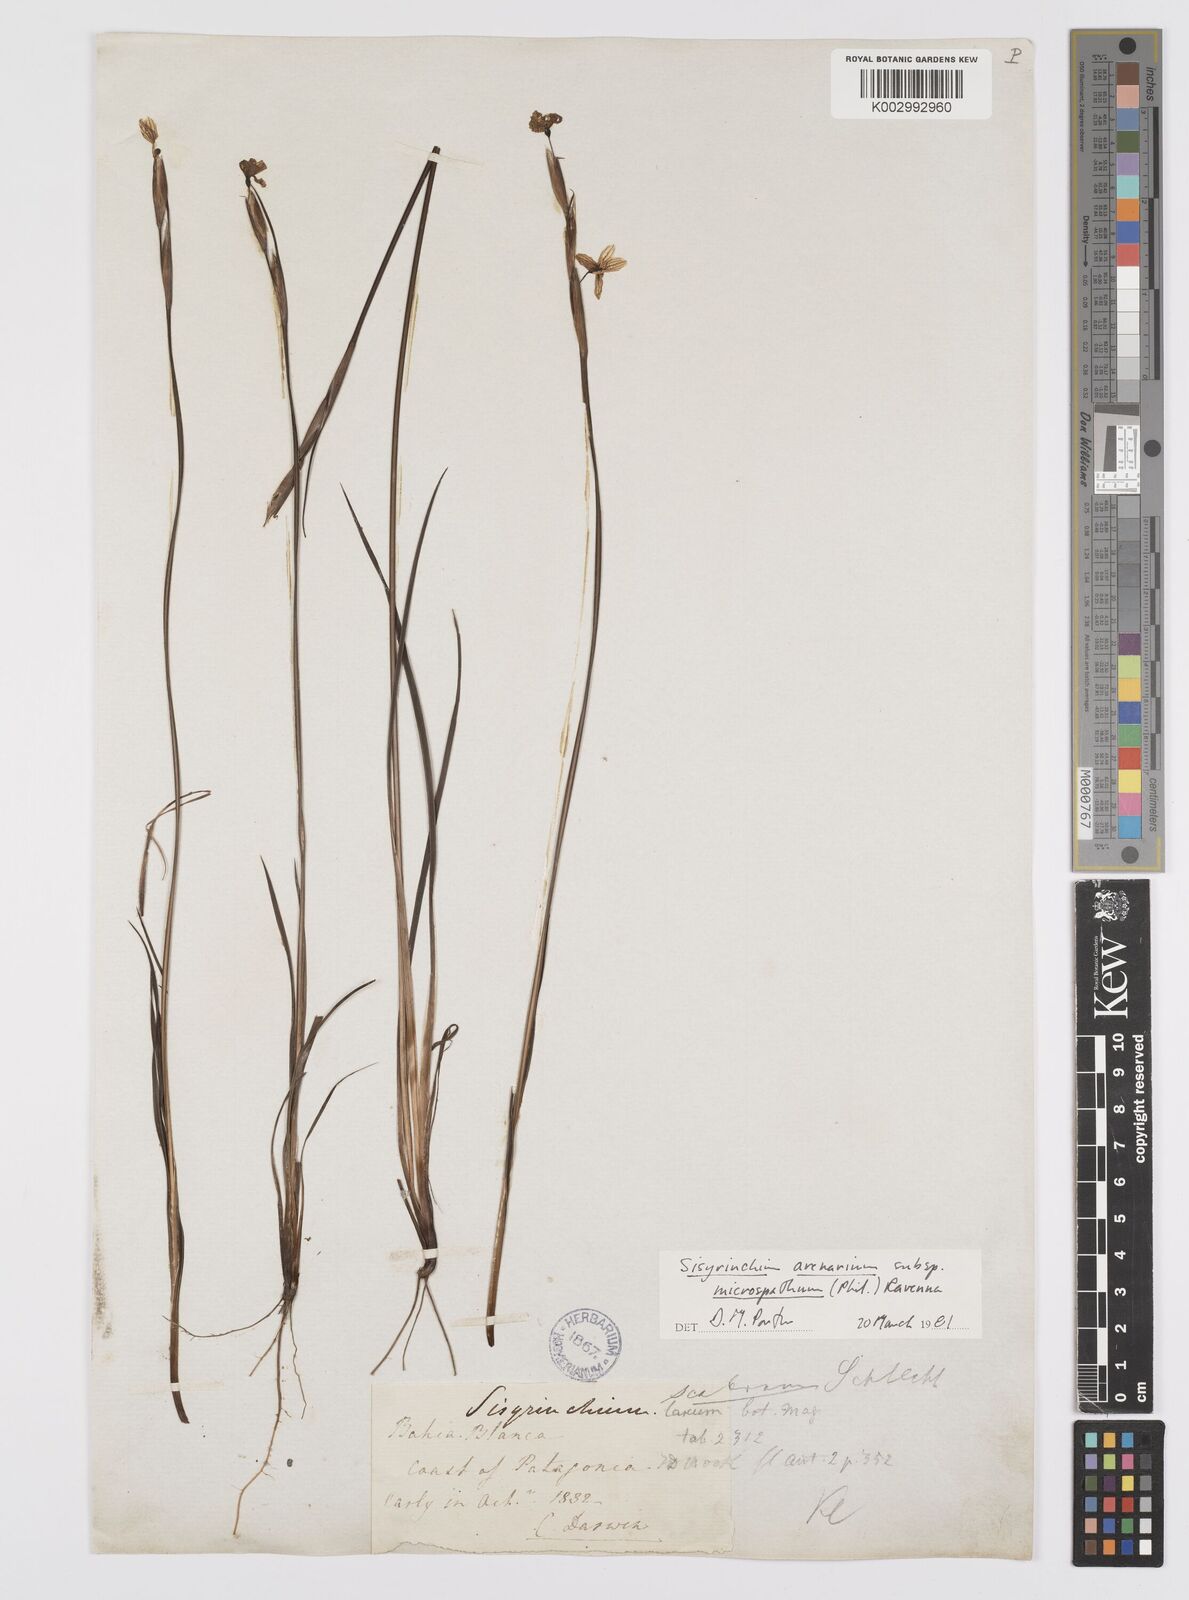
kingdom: Plantae
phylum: Tracheophyta
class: Liliopsida
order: Asparagales
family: Iridaceae
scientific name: Iridaceae
